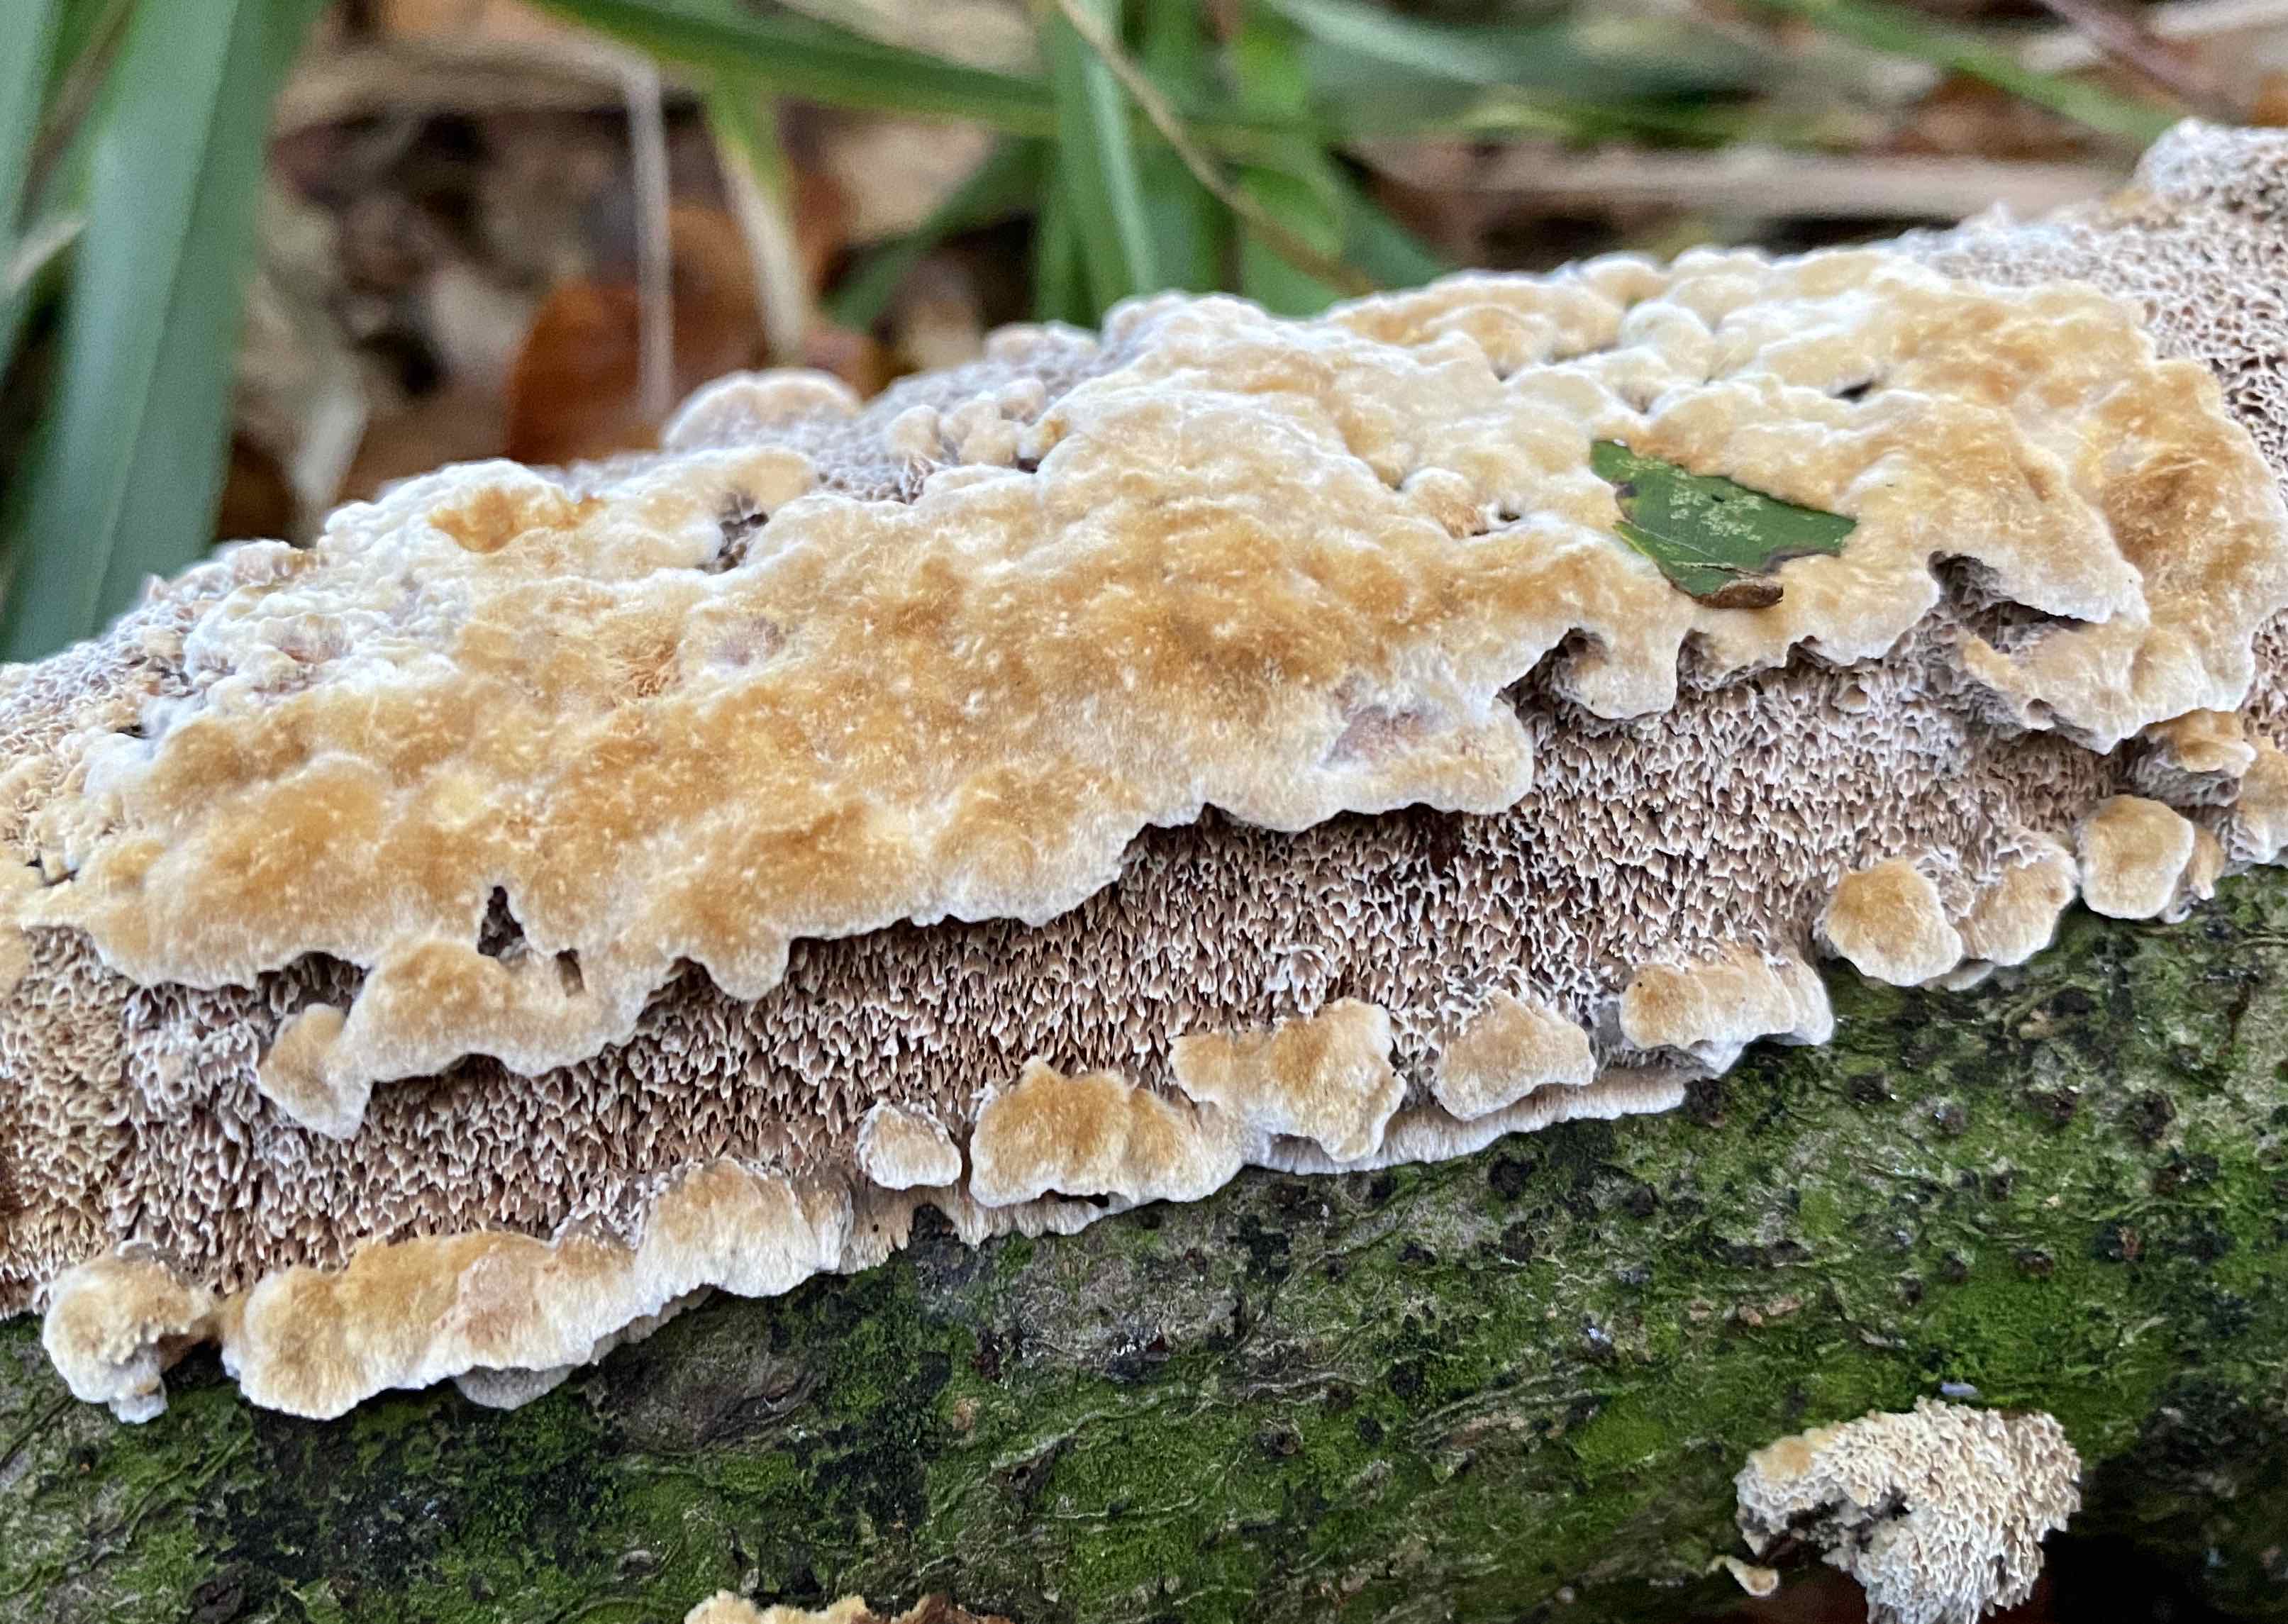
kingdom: Fungi
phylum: Basidiomycota
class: Agaricomycetes
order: Hymenochaetales
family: Hymenochaetaceae
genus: Mensularia
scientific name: Mensularia nodulosa
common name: bøge-spejlporesvamp
